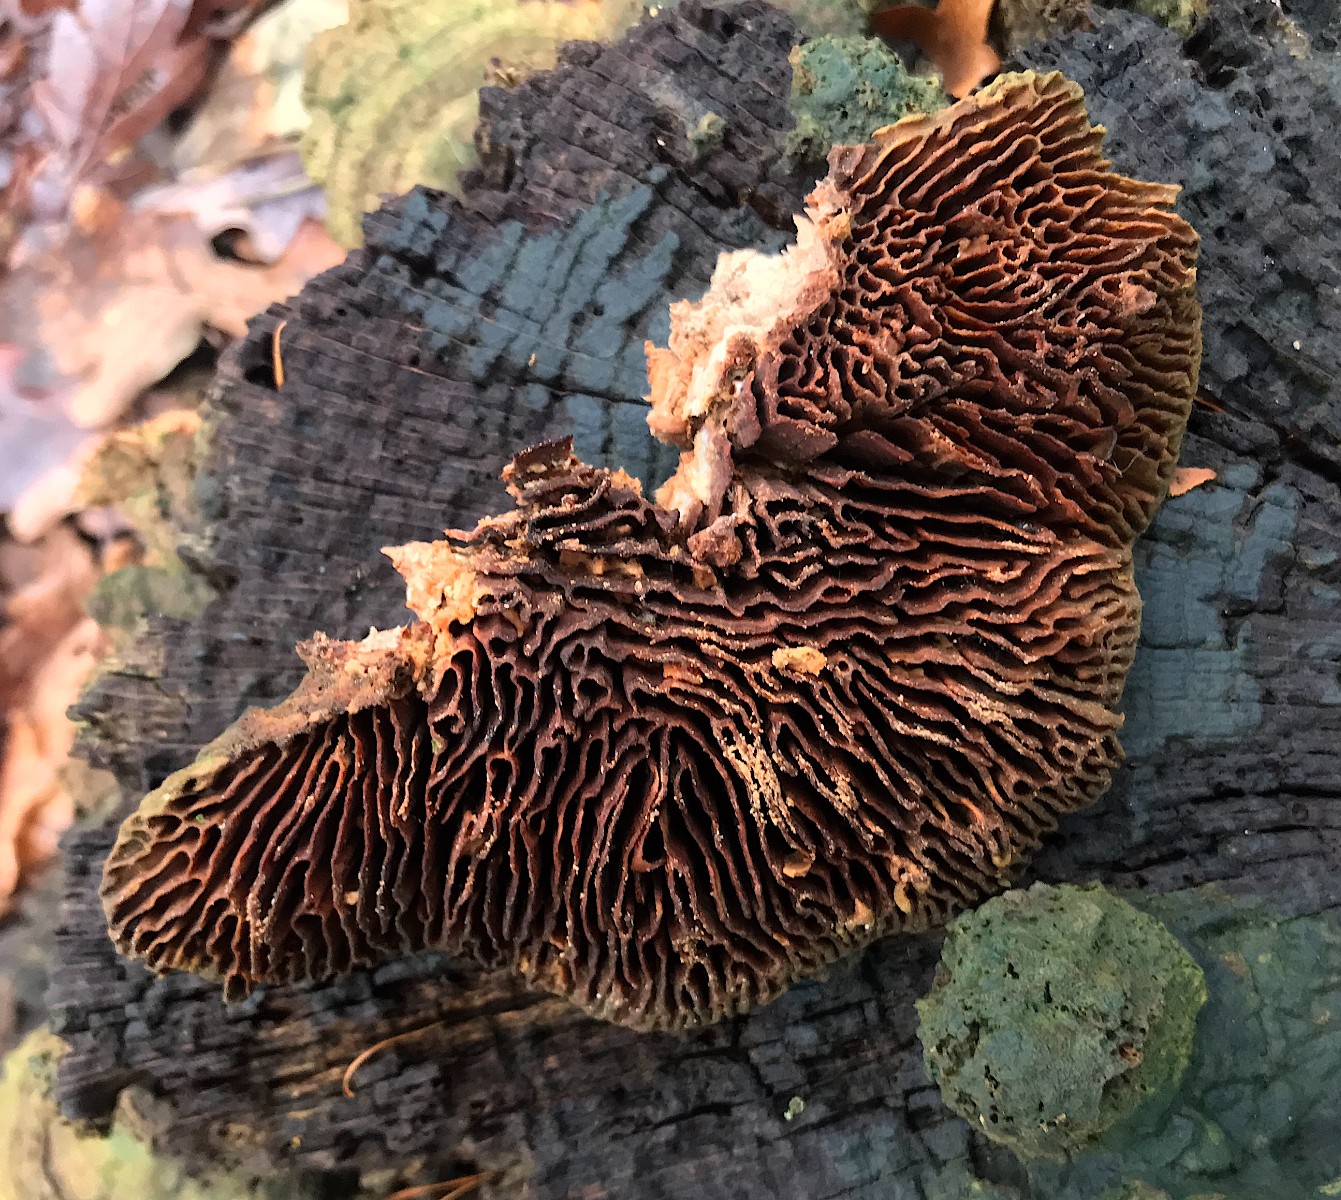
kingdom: Fungi
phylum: Basidiomycota
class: Agaricomycetes
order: Polyporales
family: Fomitopsidaceae
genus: Daedalea
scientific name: Daedalea quercina
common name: ege-labyrintsvamp
